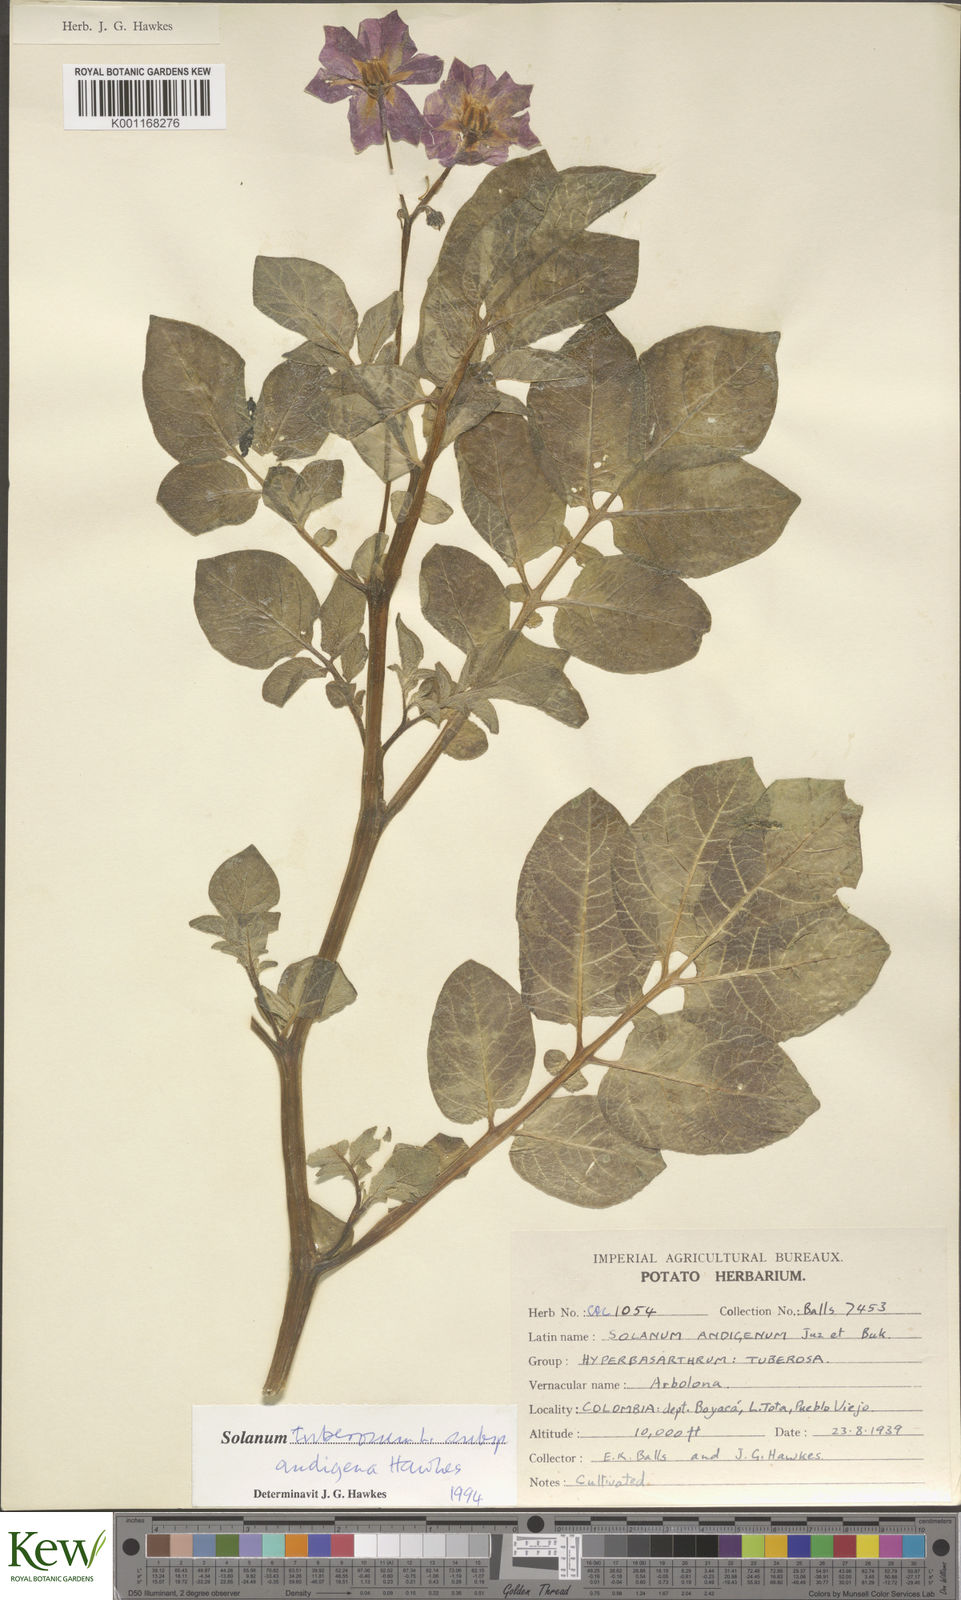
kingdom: Plantae
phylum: Tracheophyta
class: Magnoliopsida
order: Solanales
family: Solanaceae
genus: Solanum
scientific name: Solanum tuberosum
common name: Potato
